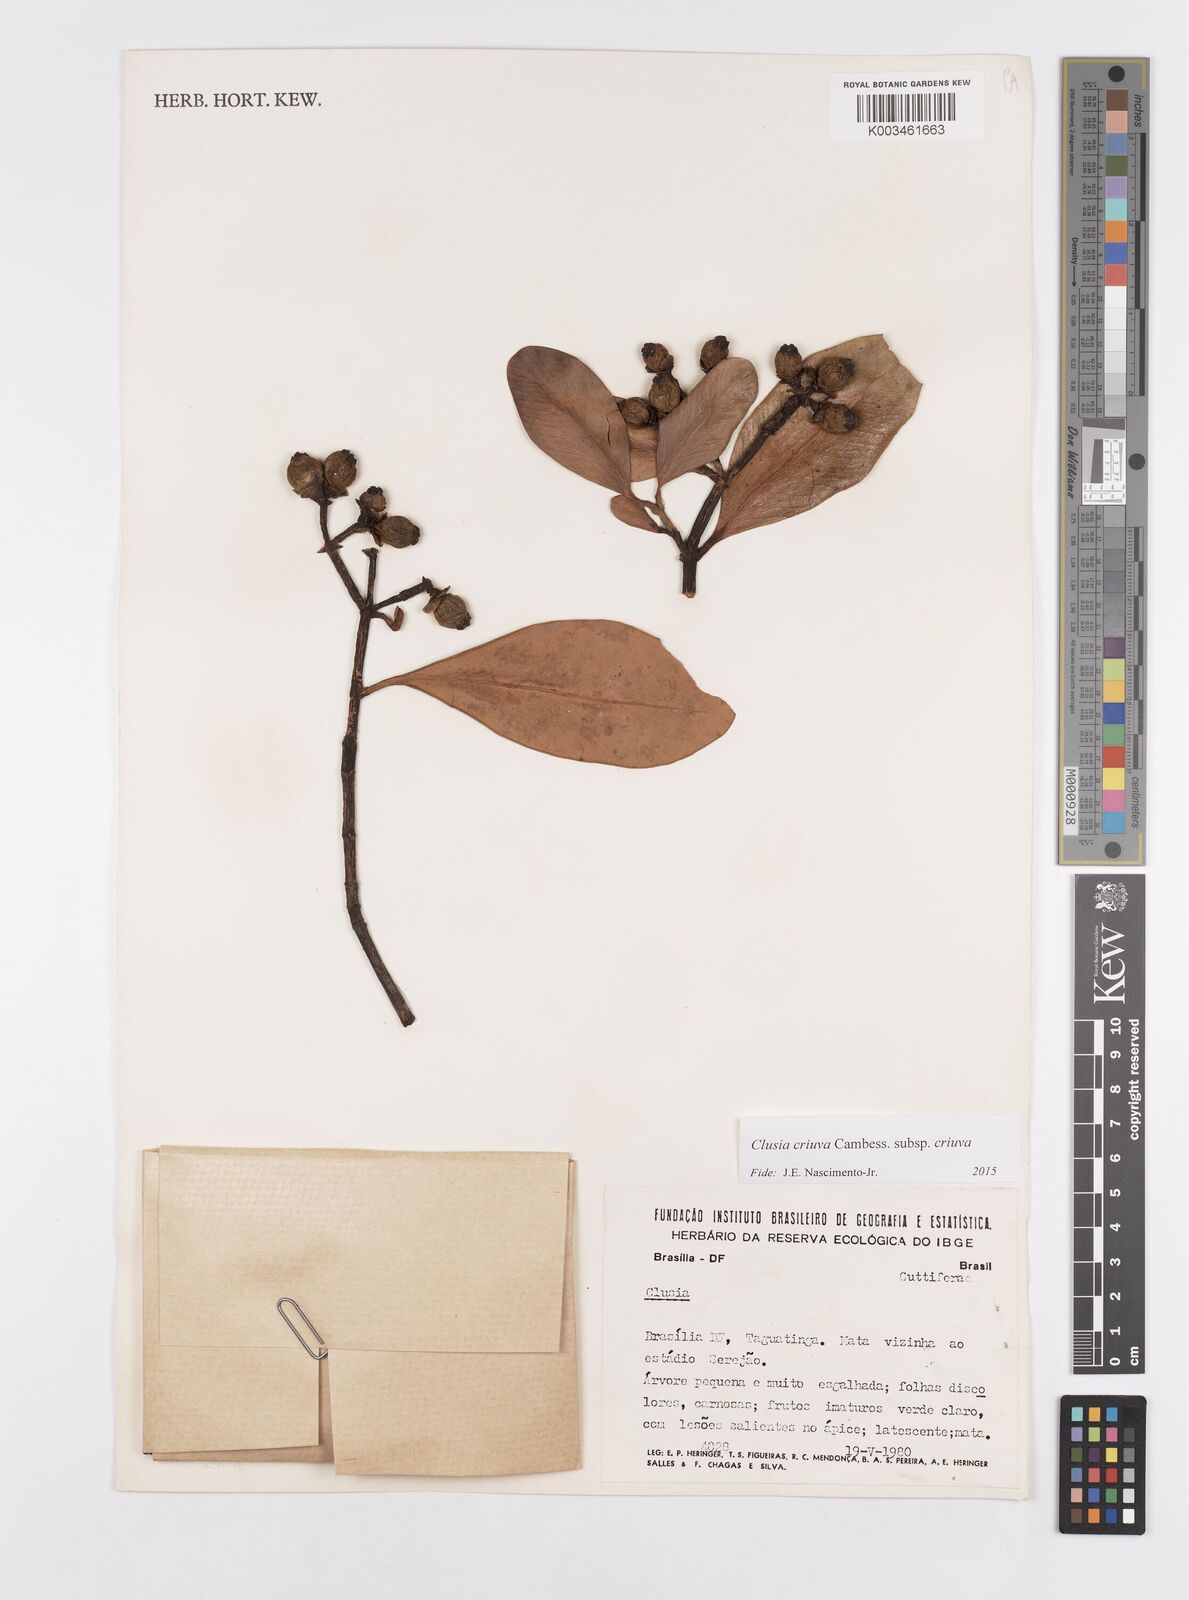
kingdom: Plantae
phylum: Tracheophyta
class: Magnoliopsida
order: Malpighiales
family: Clusiaceae
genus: Clusia
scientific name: Clusia criuva
